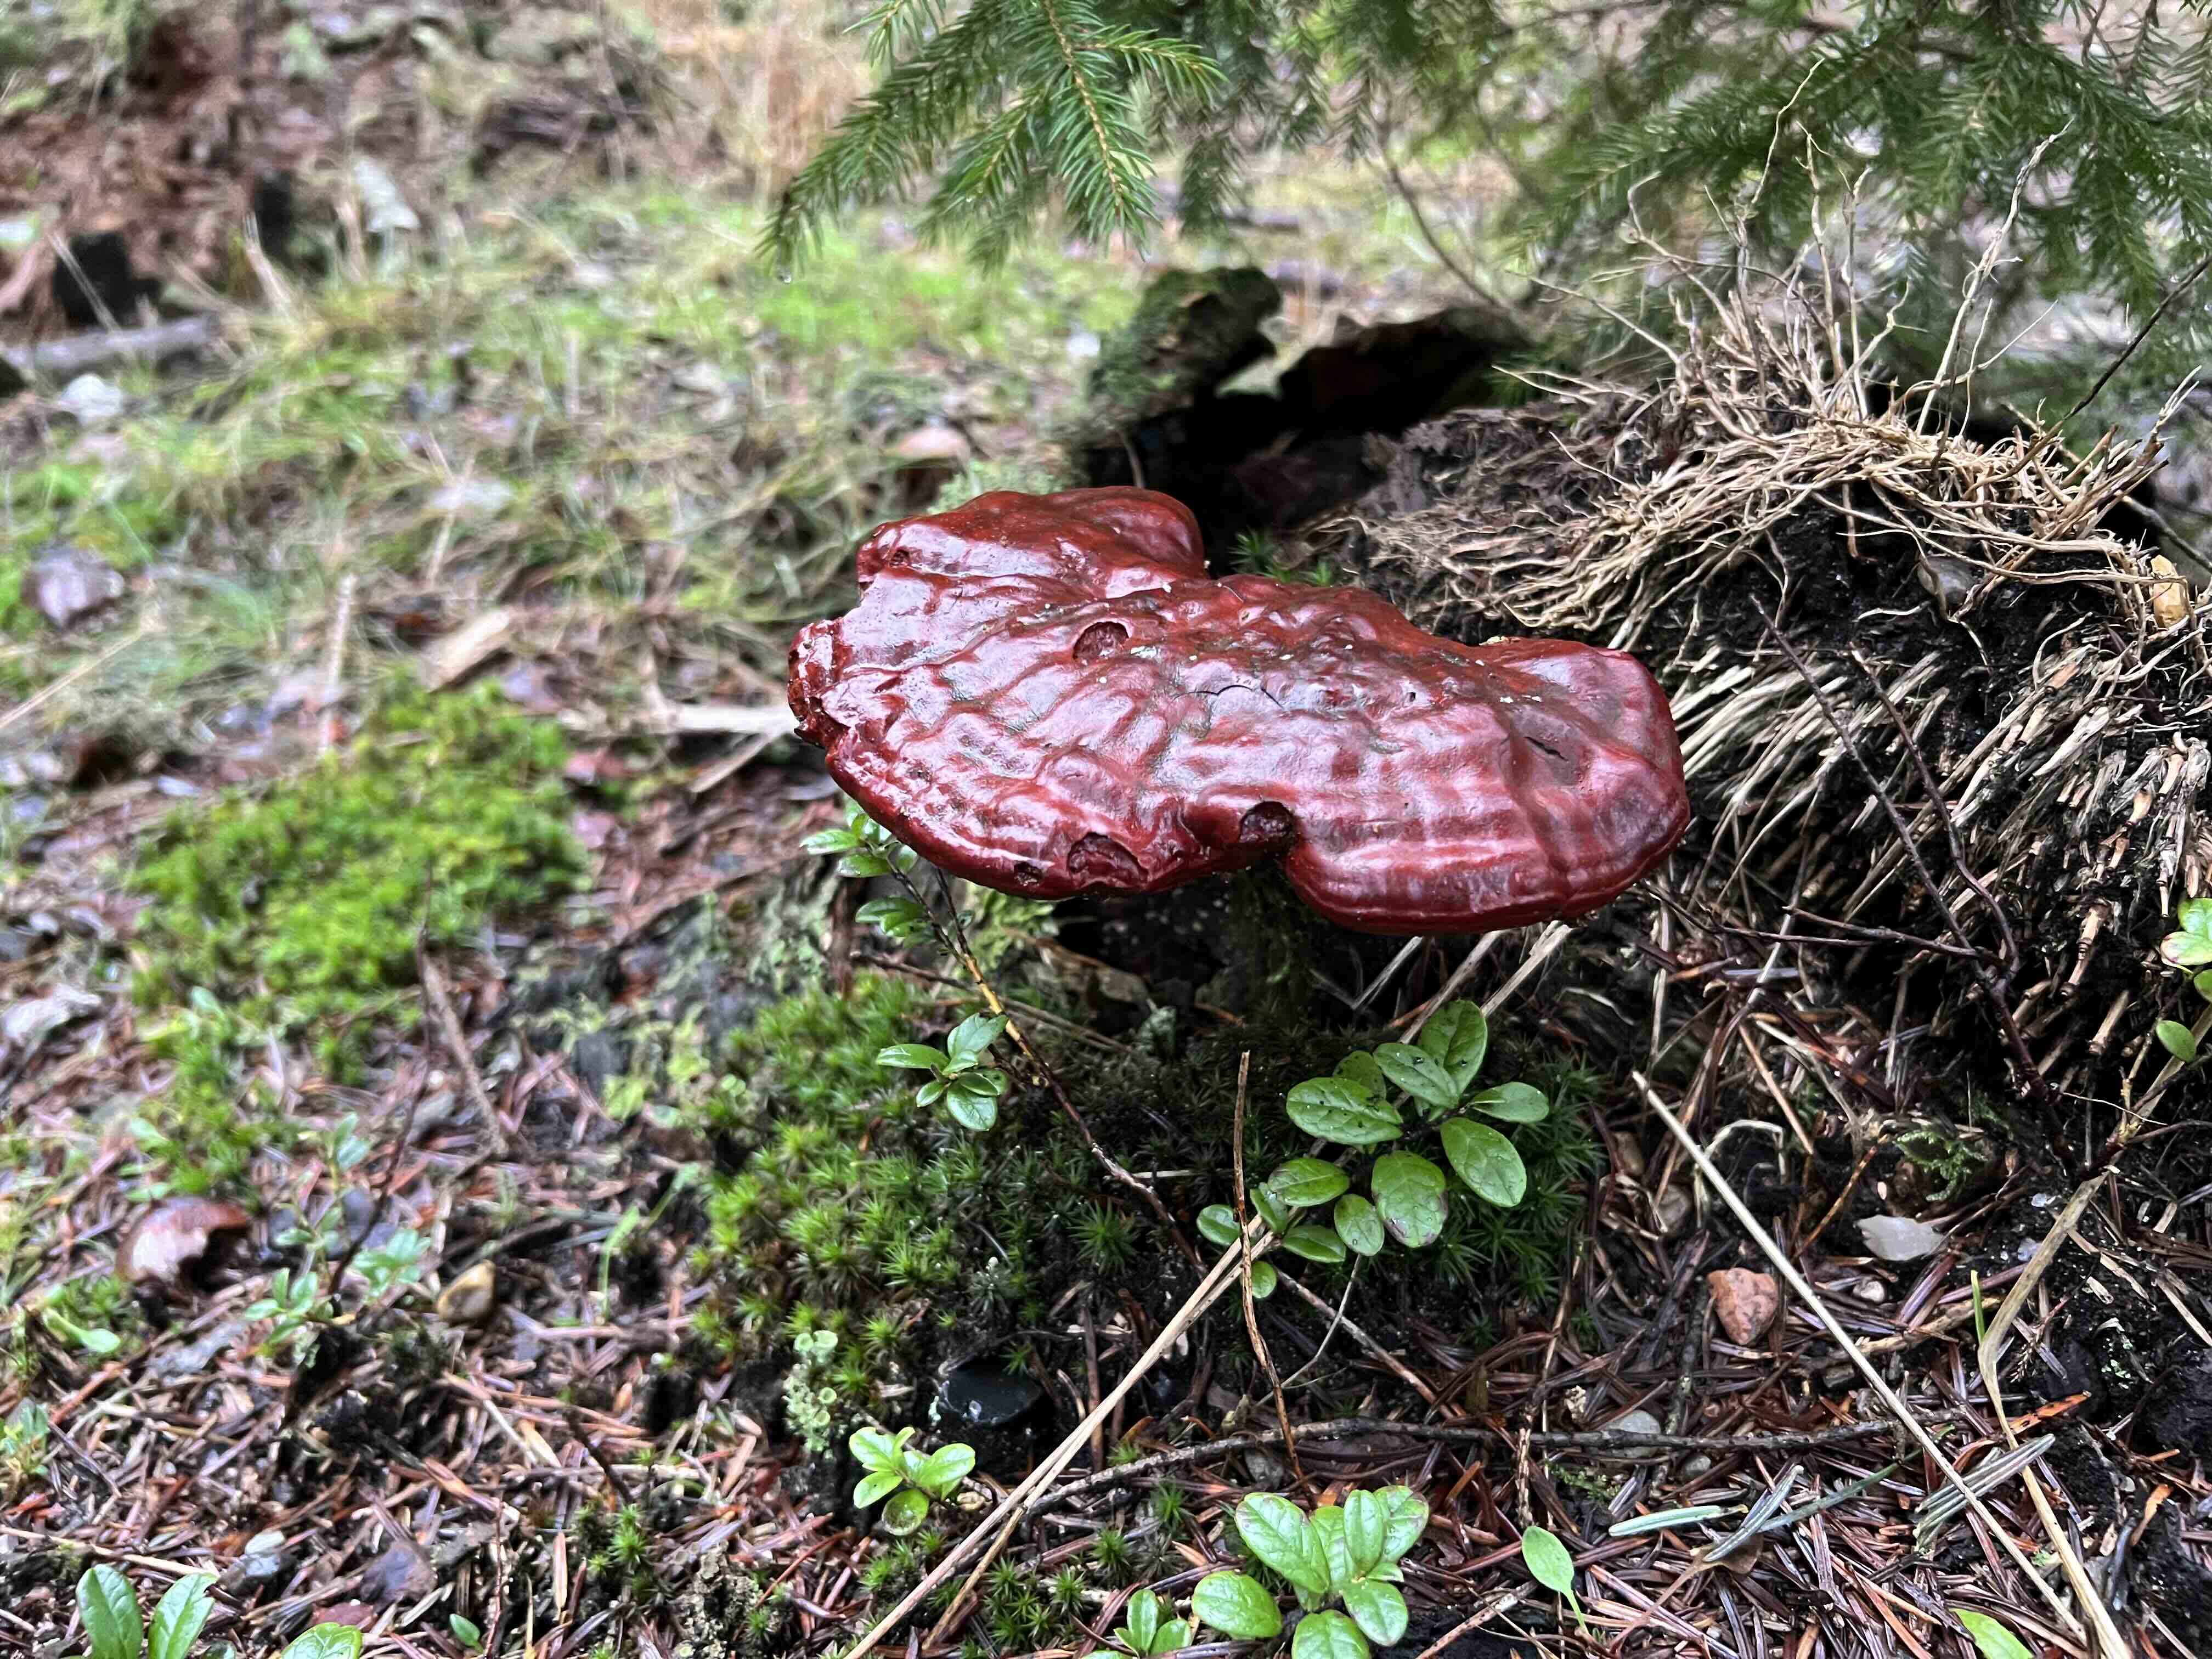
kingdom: Fungi
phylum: Basidiomycota
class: Agaricomycetes
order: Polyporales
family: Polyporaceae
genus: Ganoderma
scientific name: Ganoderma lucidum
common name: skinnende lakporesvamp
